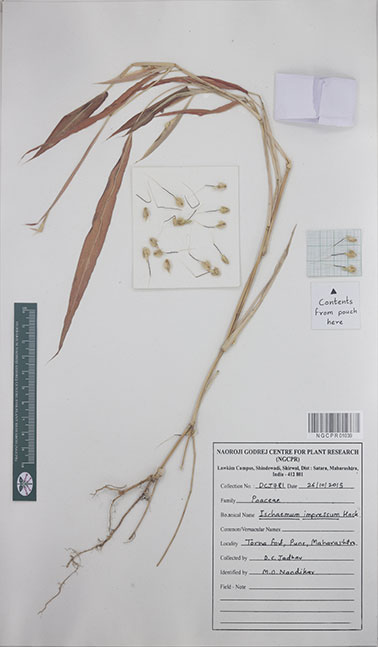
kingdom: Plantae
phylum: Tracheophyta
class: Liliopsida
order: Poales
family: Poaceae
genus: Ischaemum
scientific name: Ischaemum impressum
